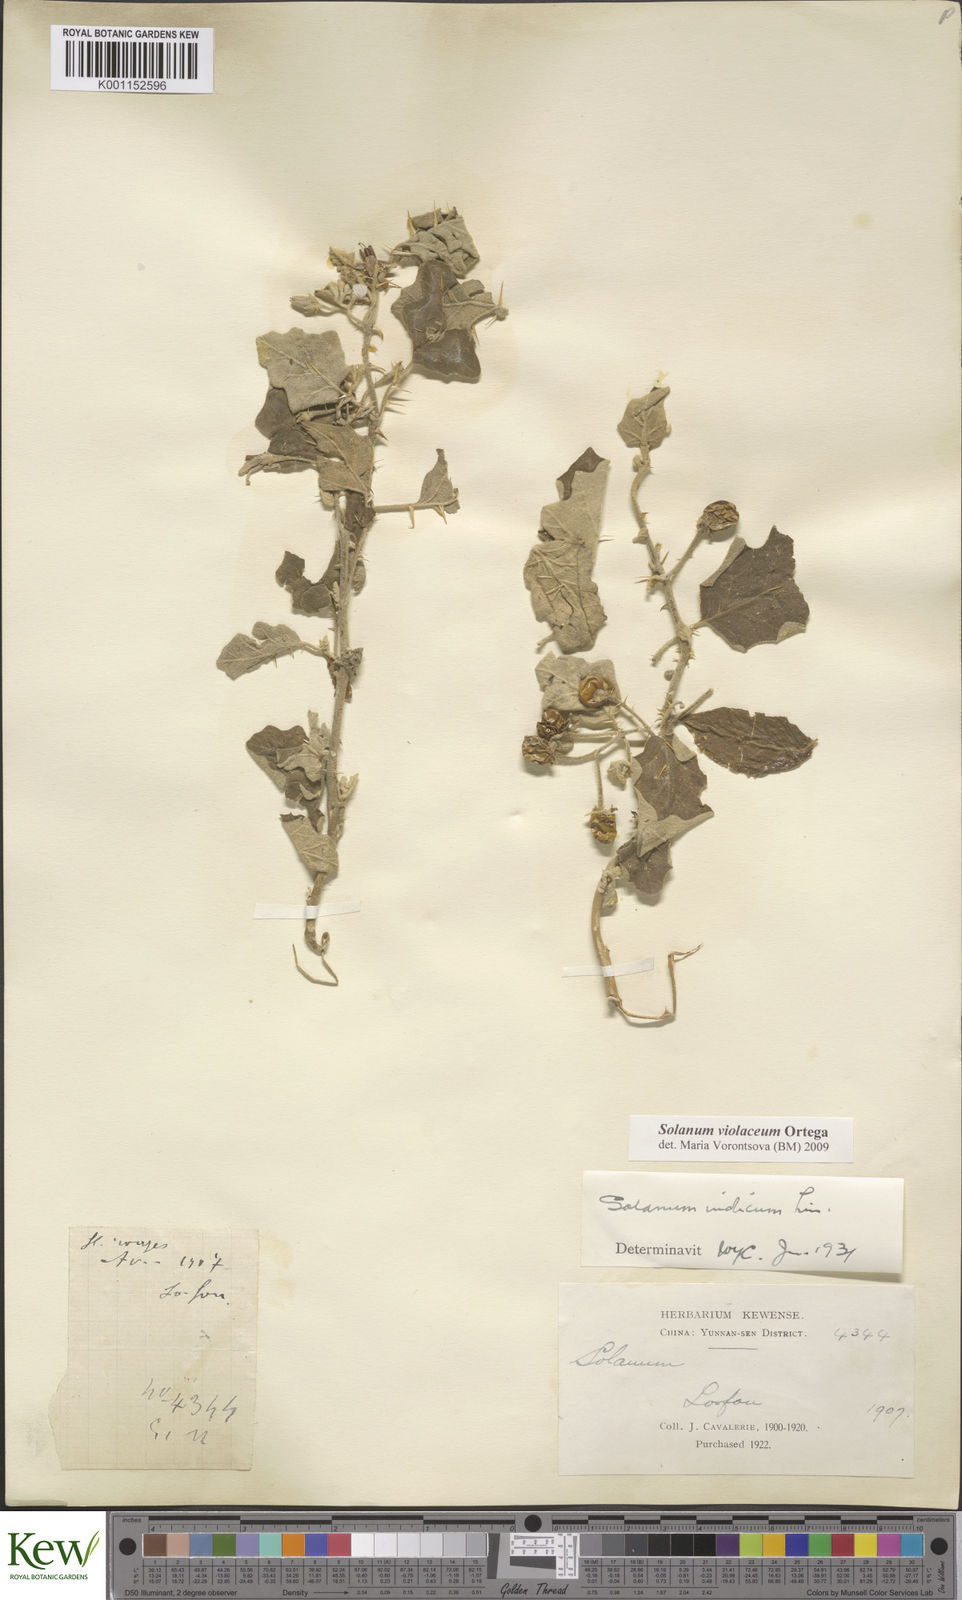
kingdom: Plantae
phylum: Tracheophyta
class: Magnoliopsida
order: Solanales
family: Solanaceae
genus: Solanum
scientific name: Solanum violaceum
